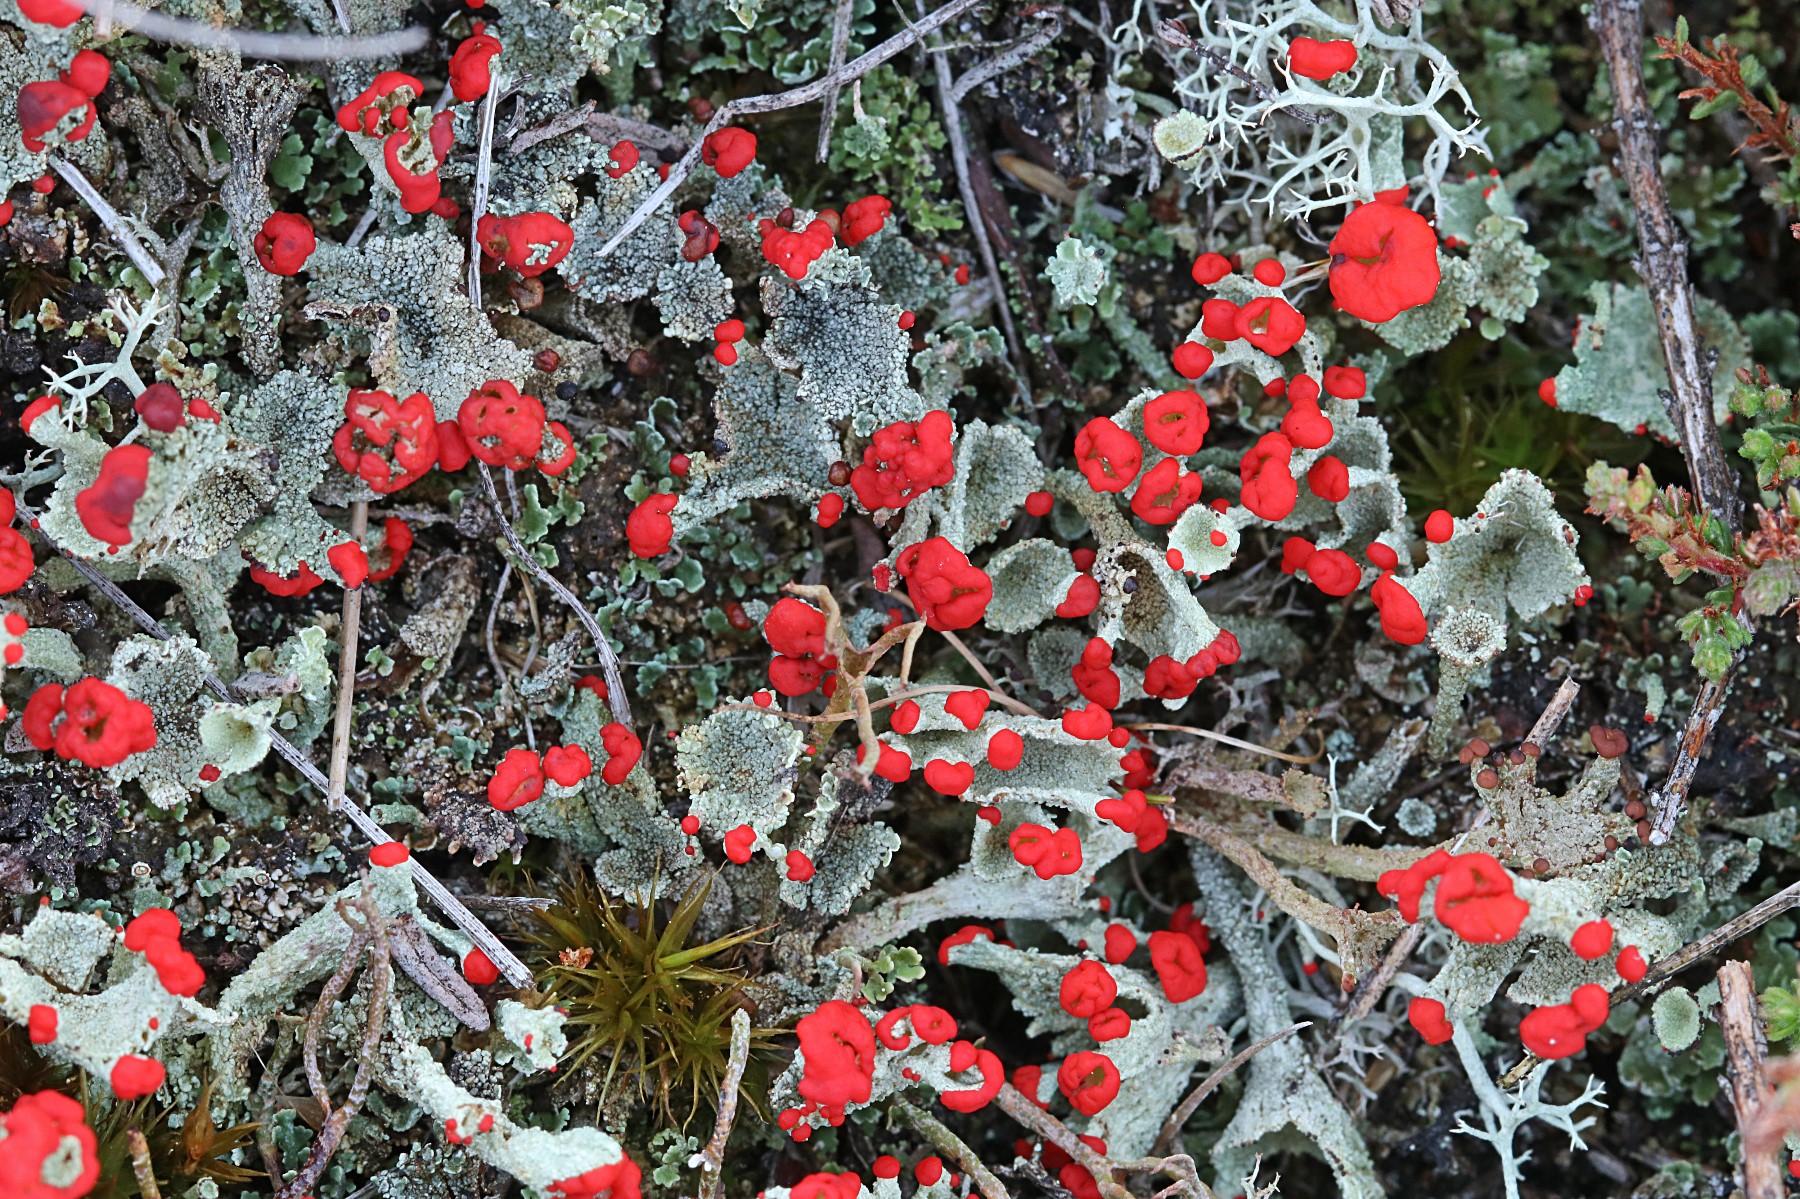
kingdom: Fungi
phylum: Ascomycota
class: Lecanoromycetes
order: Lecanorales
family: Cladoniaceae
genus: Cladonia
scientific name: Cladonia diversa
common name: rød bægerlav
